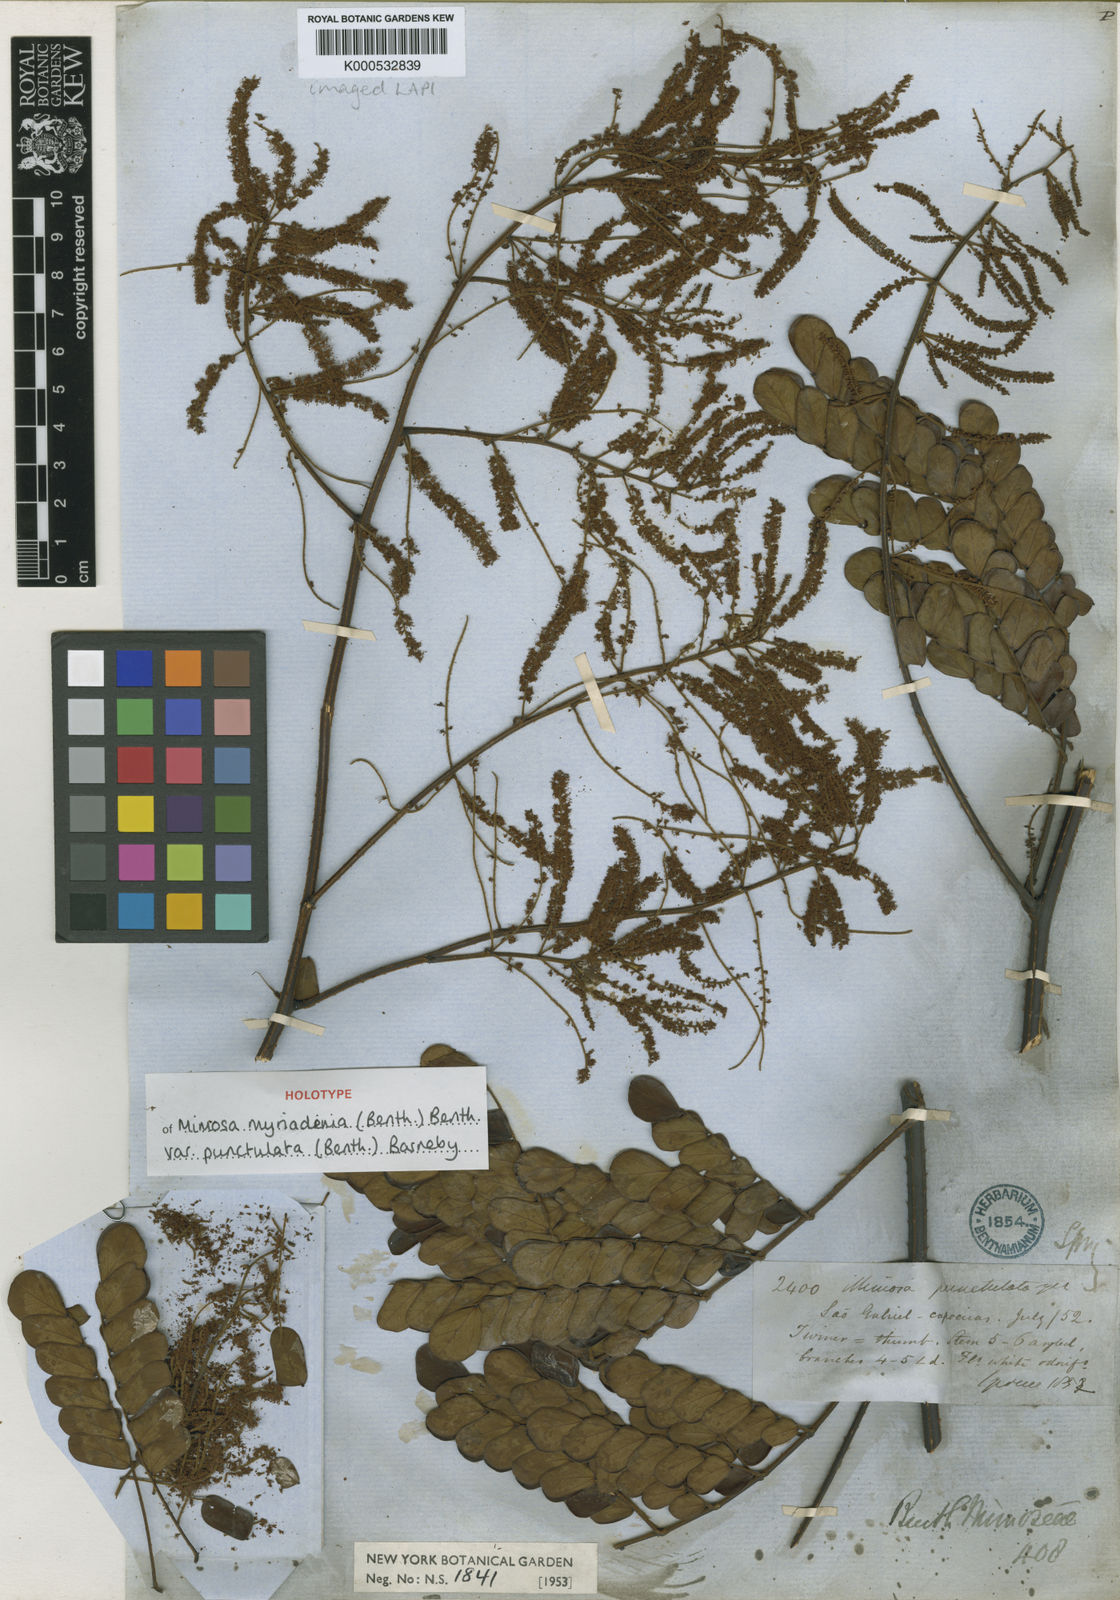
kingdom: Plantae
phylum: Tracheophyta
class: Magnoliopsida
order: Fabales
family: Fabaceae
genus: Mimosa
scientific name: Mimosa myriadenia
